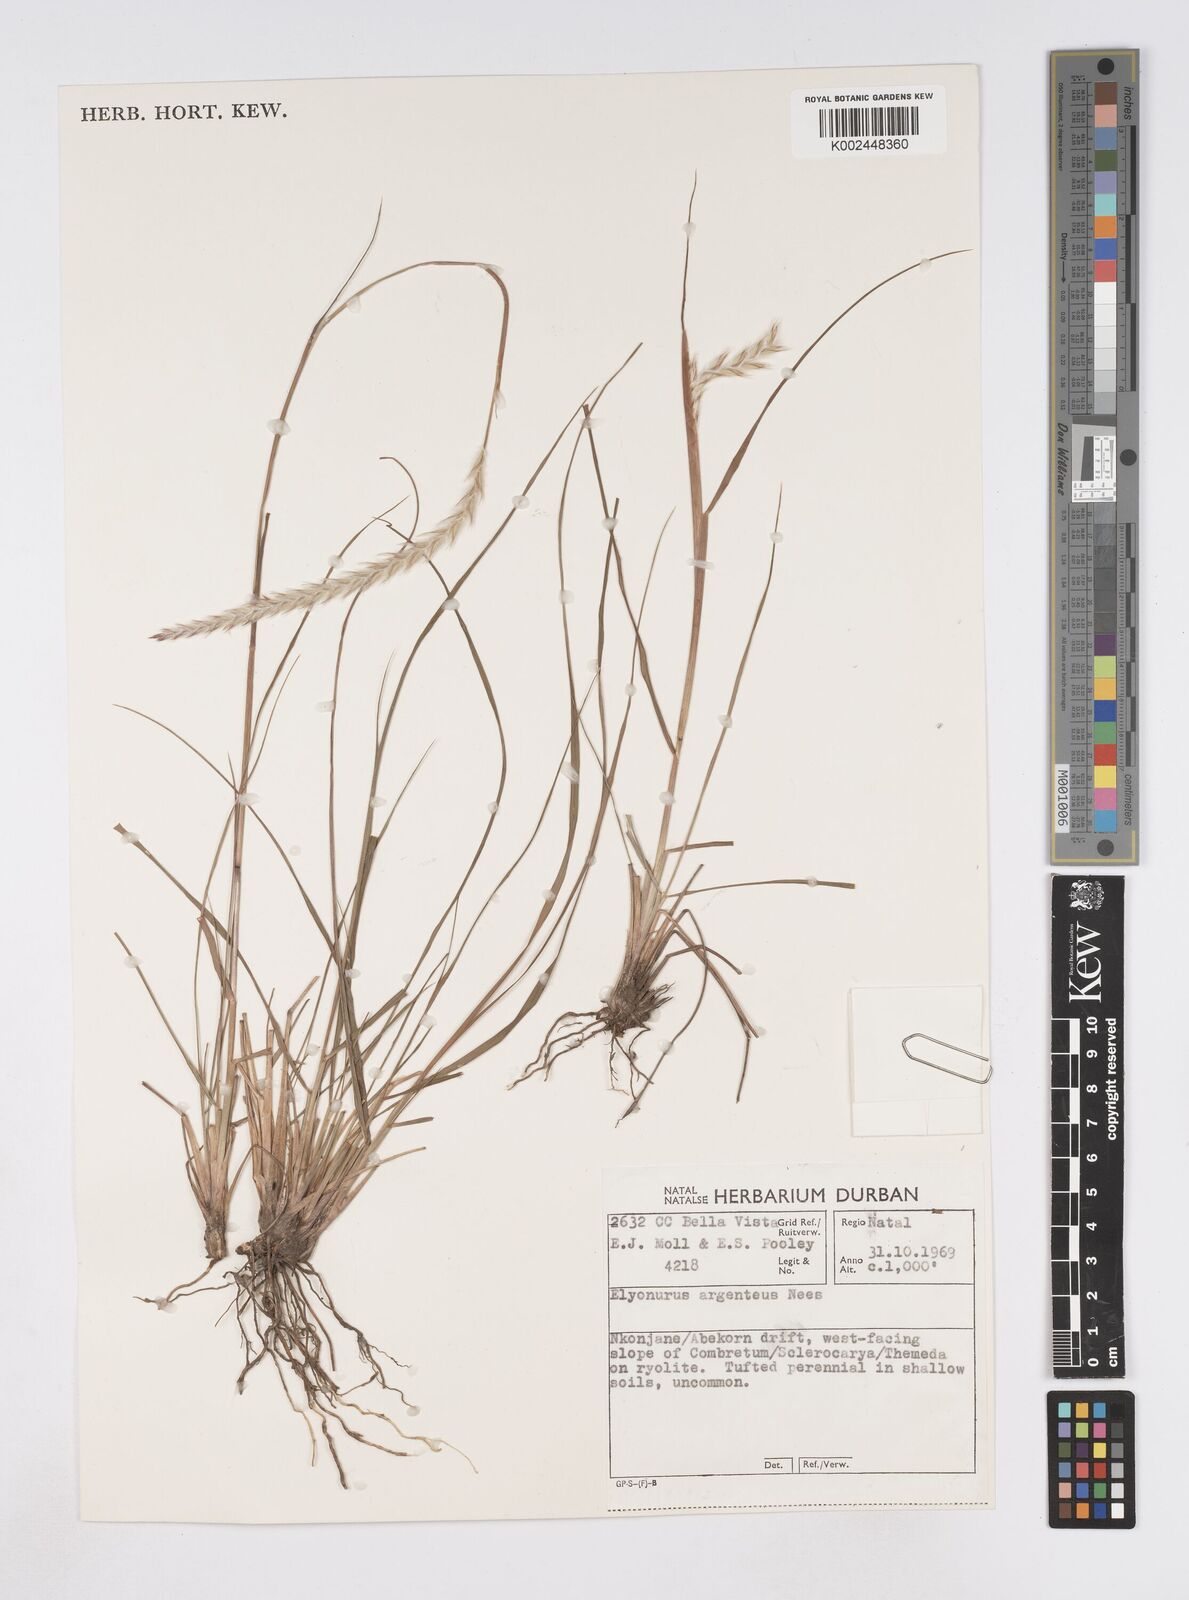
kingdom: Plantae
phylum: Tracheophyta
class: Liliopsida
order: Poales
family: Poaceae
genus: Elionurus
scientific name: Elionurus muticus
